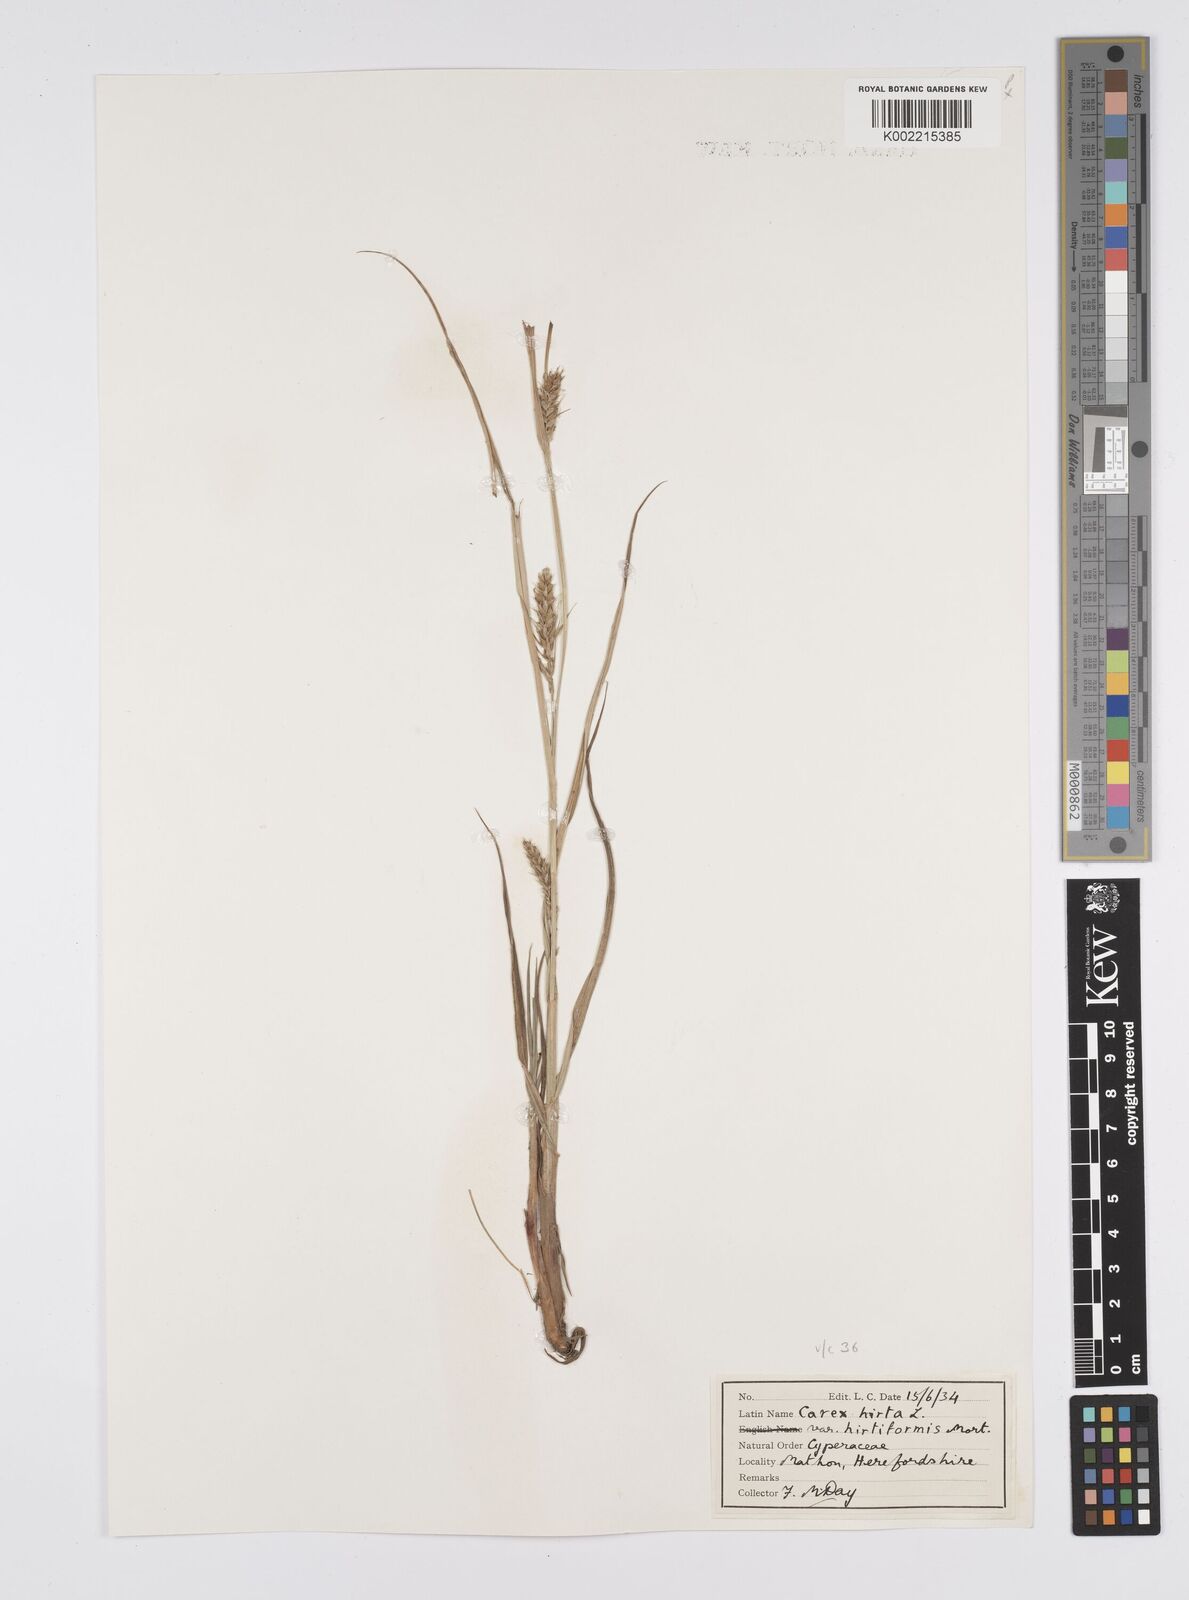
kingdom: Plantae
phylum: Tracheophyta
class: Liliopsida
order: Poales
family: Cyperaceae
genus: Carex
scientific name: Carex hirta
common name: Hairy sedge
